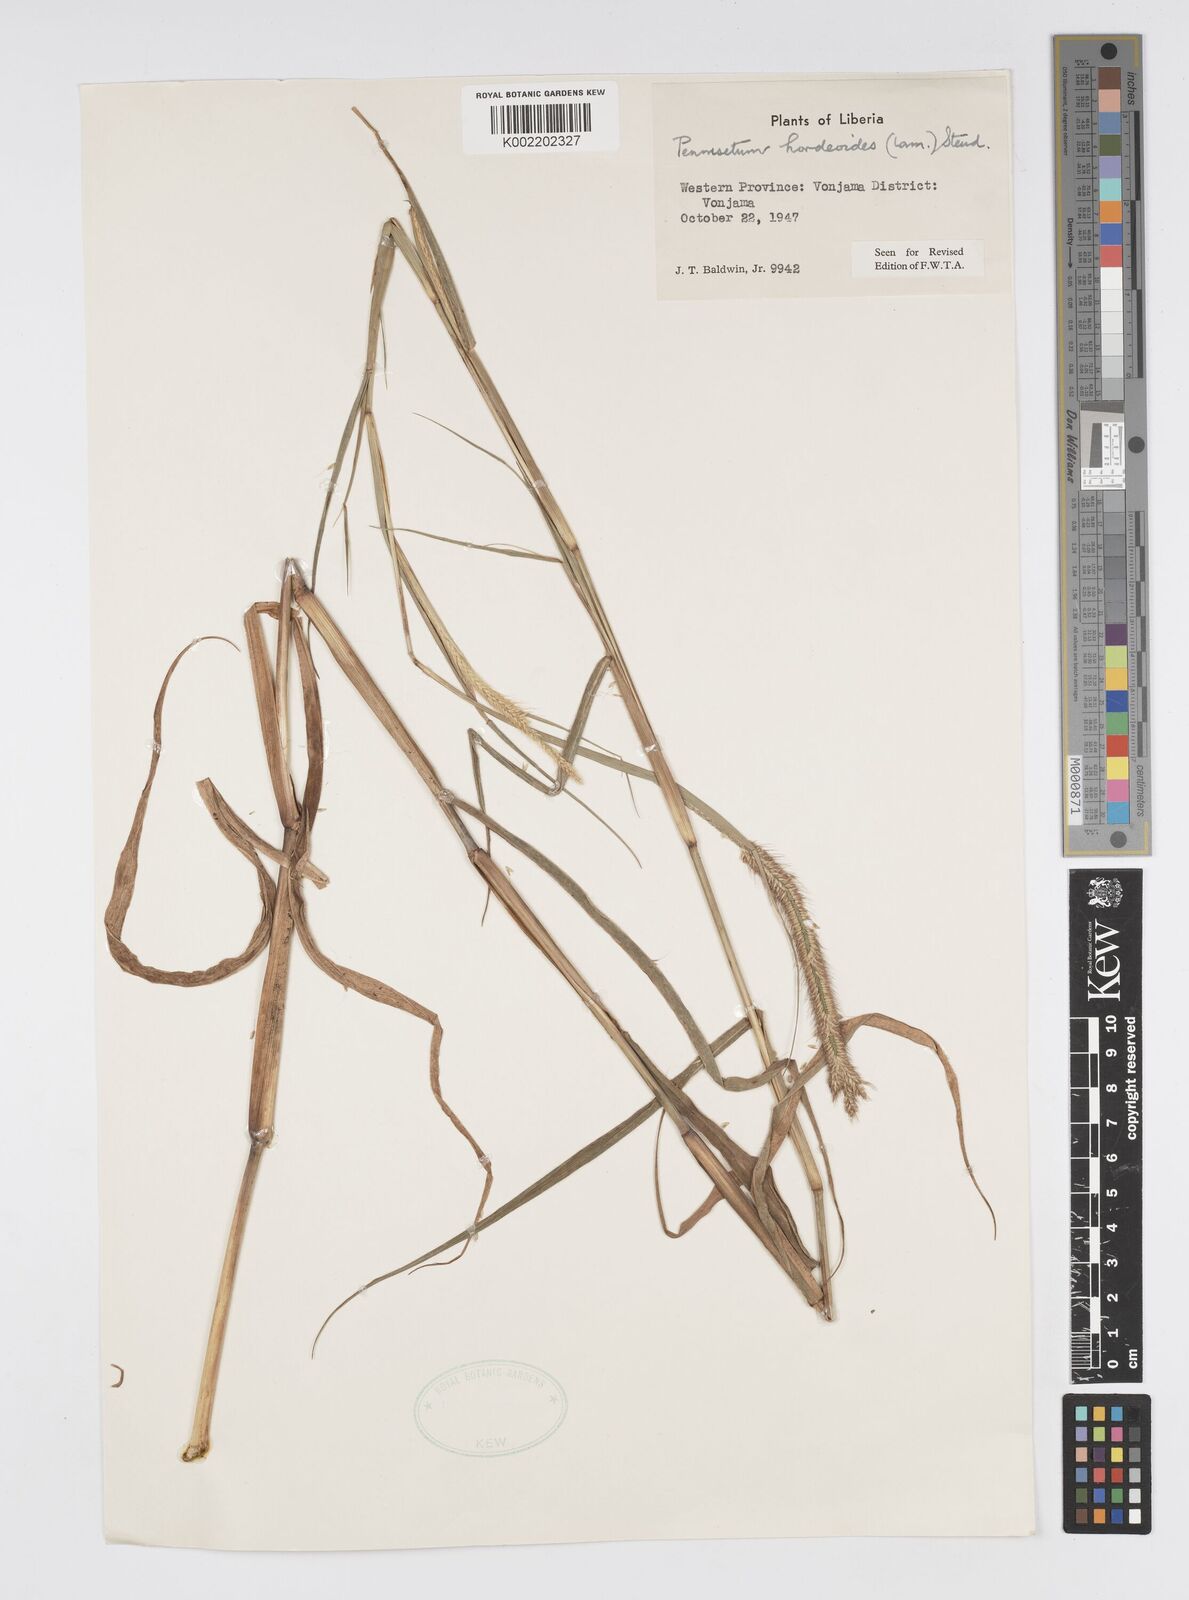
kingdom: Plantae
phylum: Tracheophyta
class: Liliopsida
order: Poales
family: Poaceae
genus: Cenchrus
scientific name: Cenchrus hordeoides
